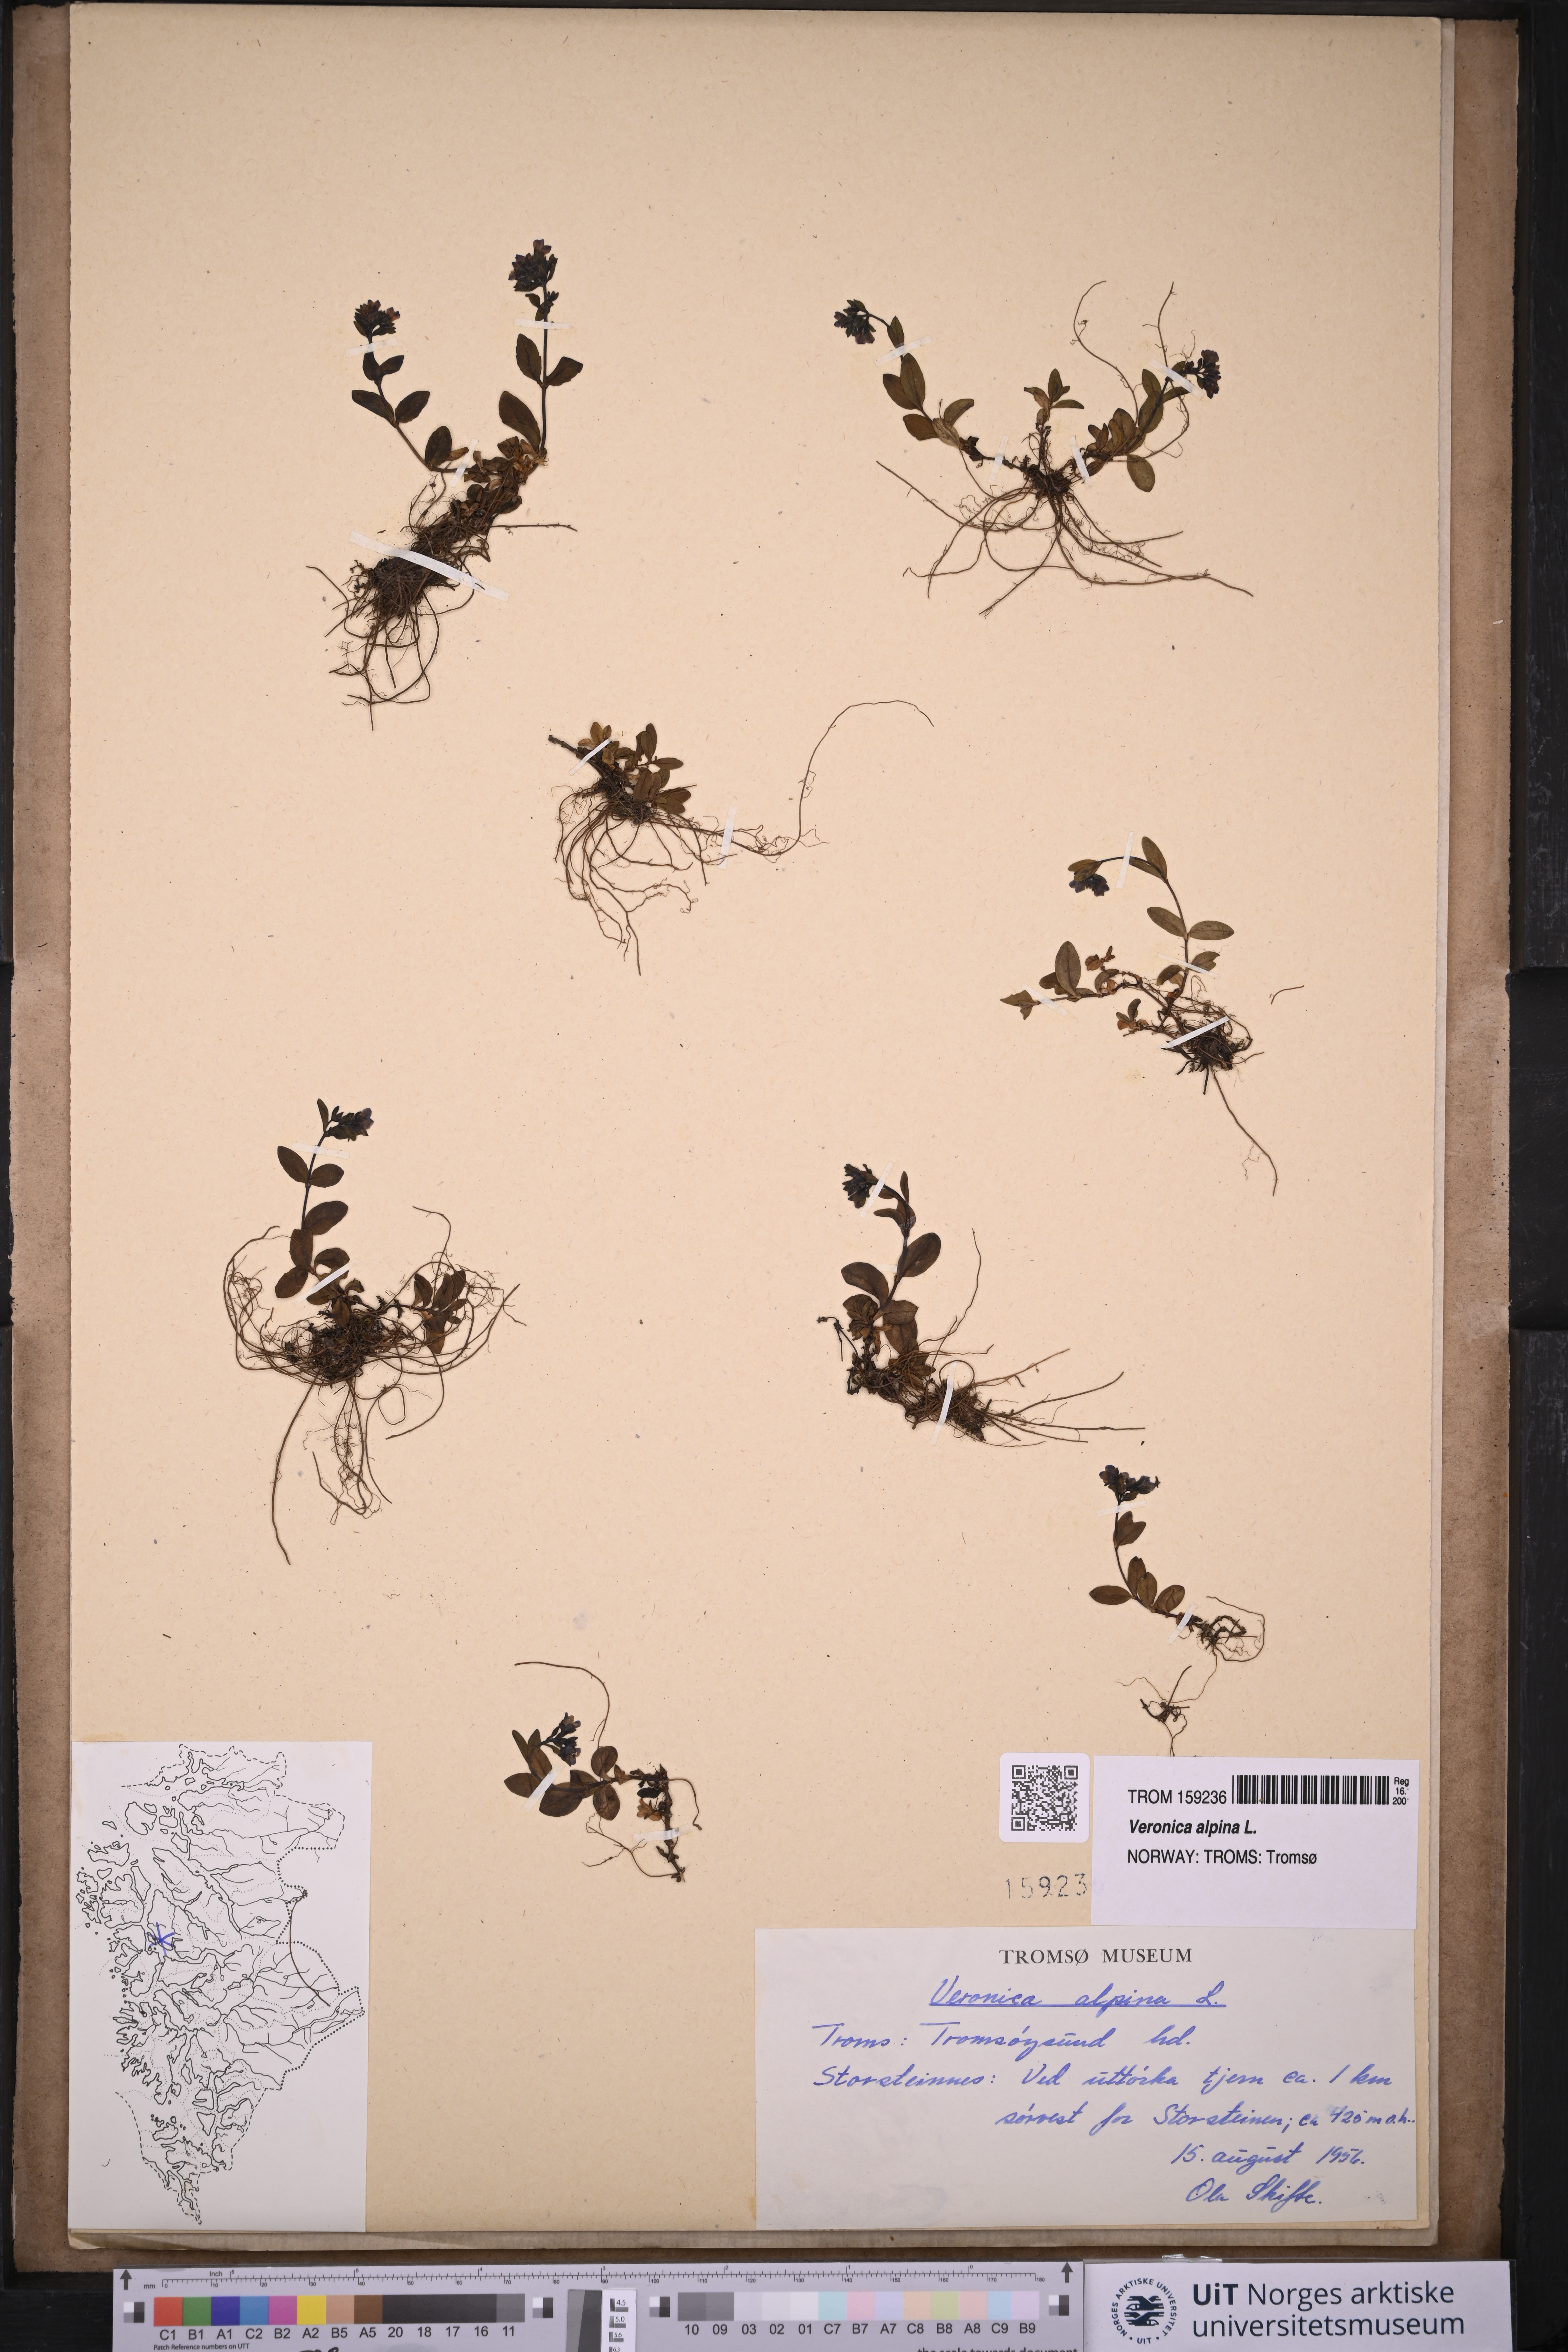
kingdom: Plantae
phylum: Tracheophyta
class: Magnoliopsida
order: Lamiales
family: Plantaginaceae
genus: Veronica
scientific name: Veronica alpina
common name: Alpine speedwell
